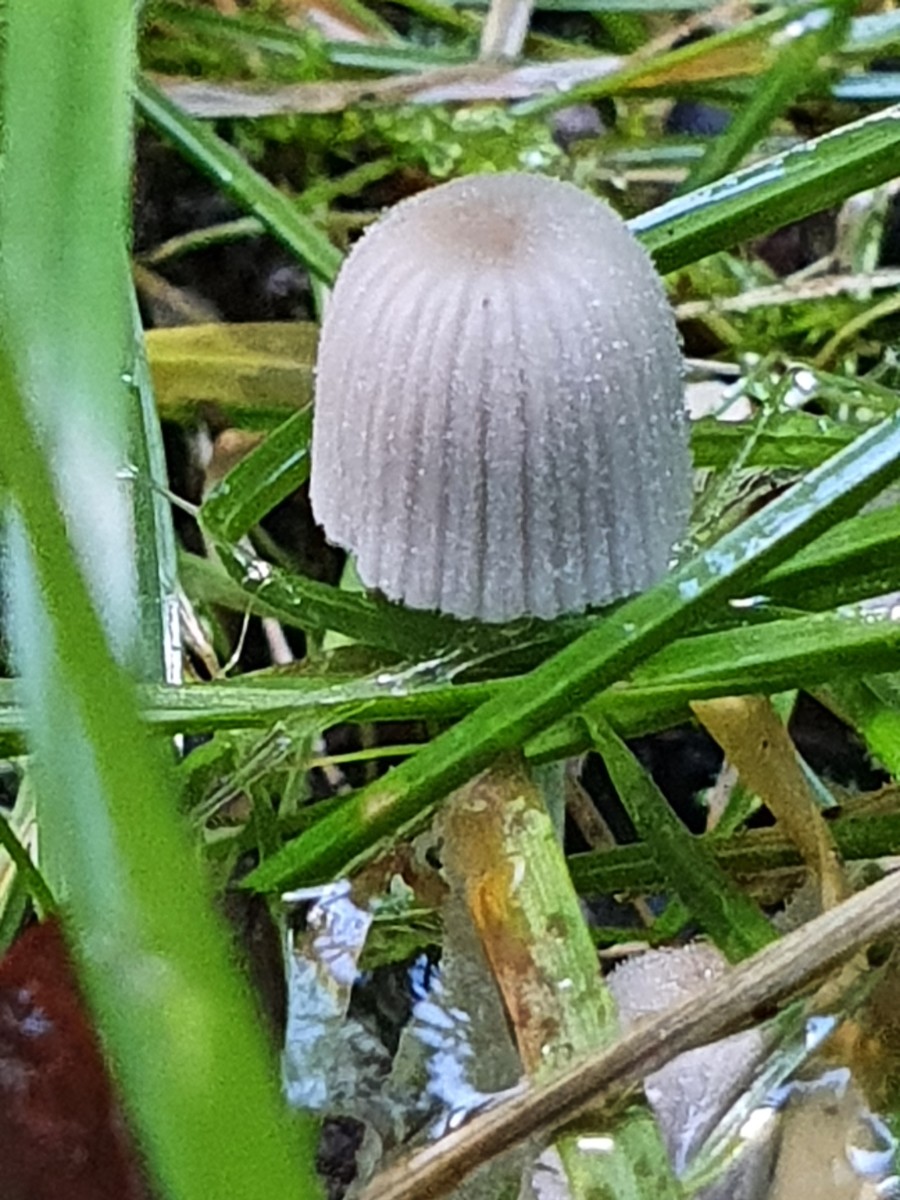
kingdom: Fungi
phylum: Basidiomycota
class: Agaricomycetes
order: Agaricales
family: Psathyrellaceae
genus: Coprinellus
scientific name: Coprinellus disseminatus
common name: bredsået blækhat
